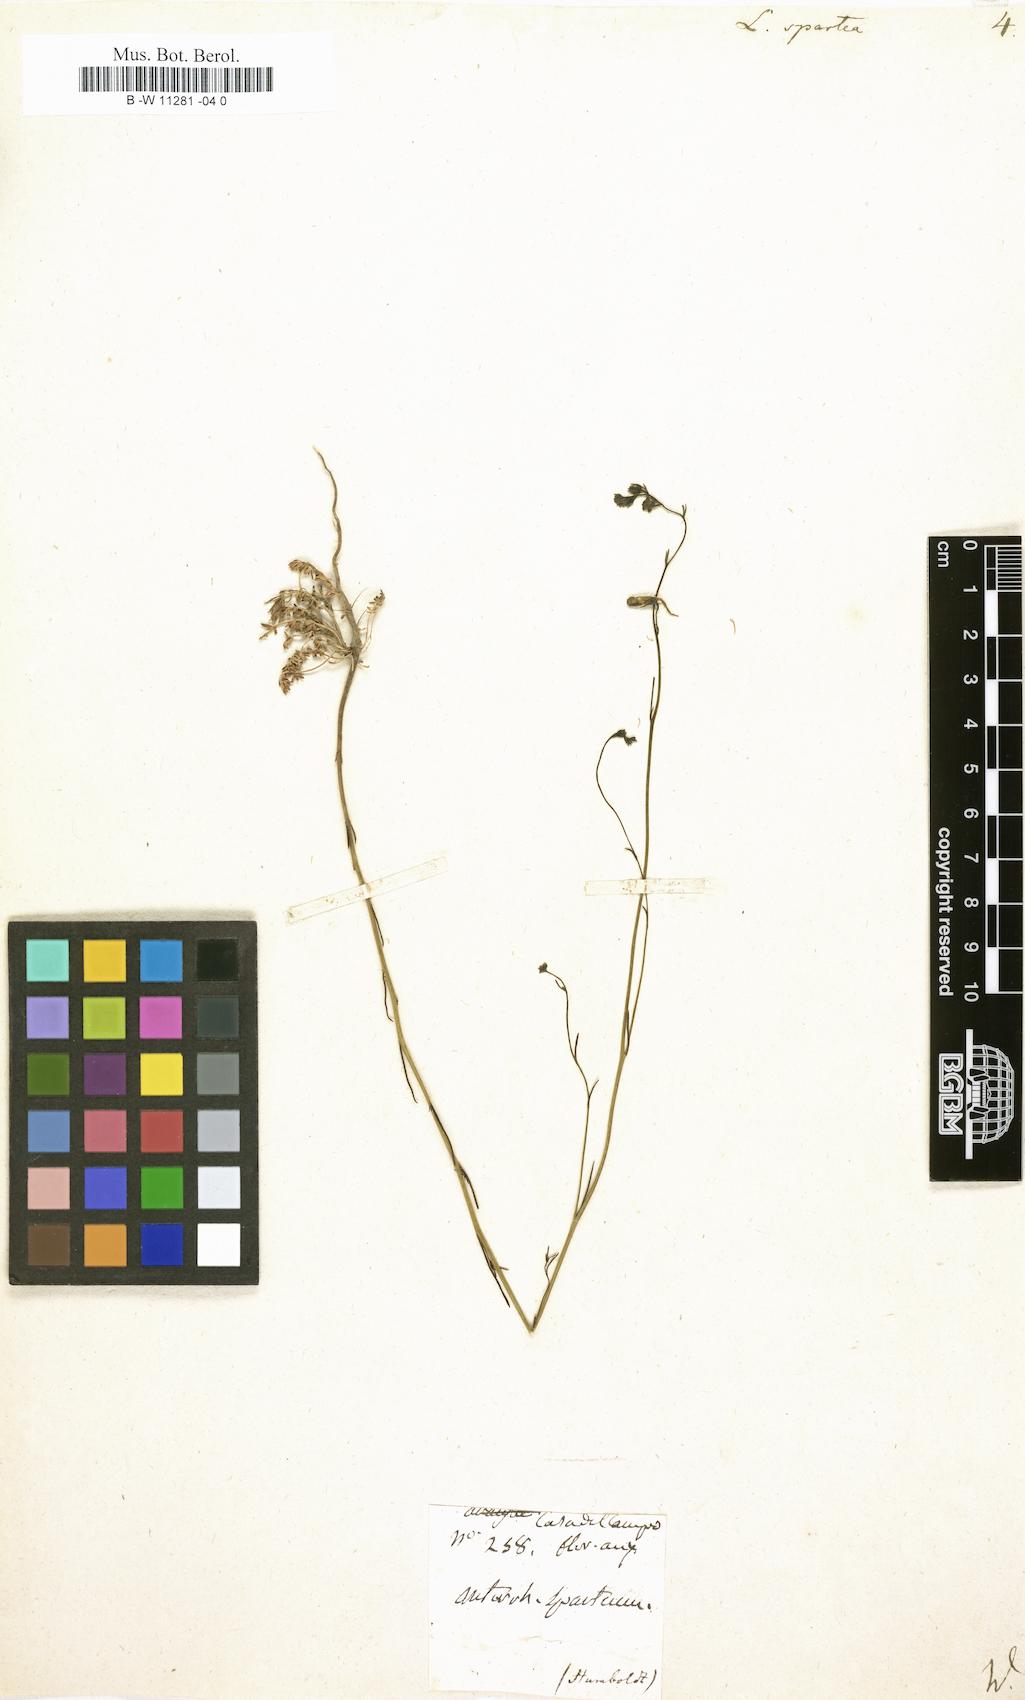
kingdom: Plantae
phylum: Tracheophyta
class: Magnoliopsida
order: Lamiales
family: Plantaginaceae
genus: Linaria
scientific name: Linaria spartea
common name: Ballast toadflax
